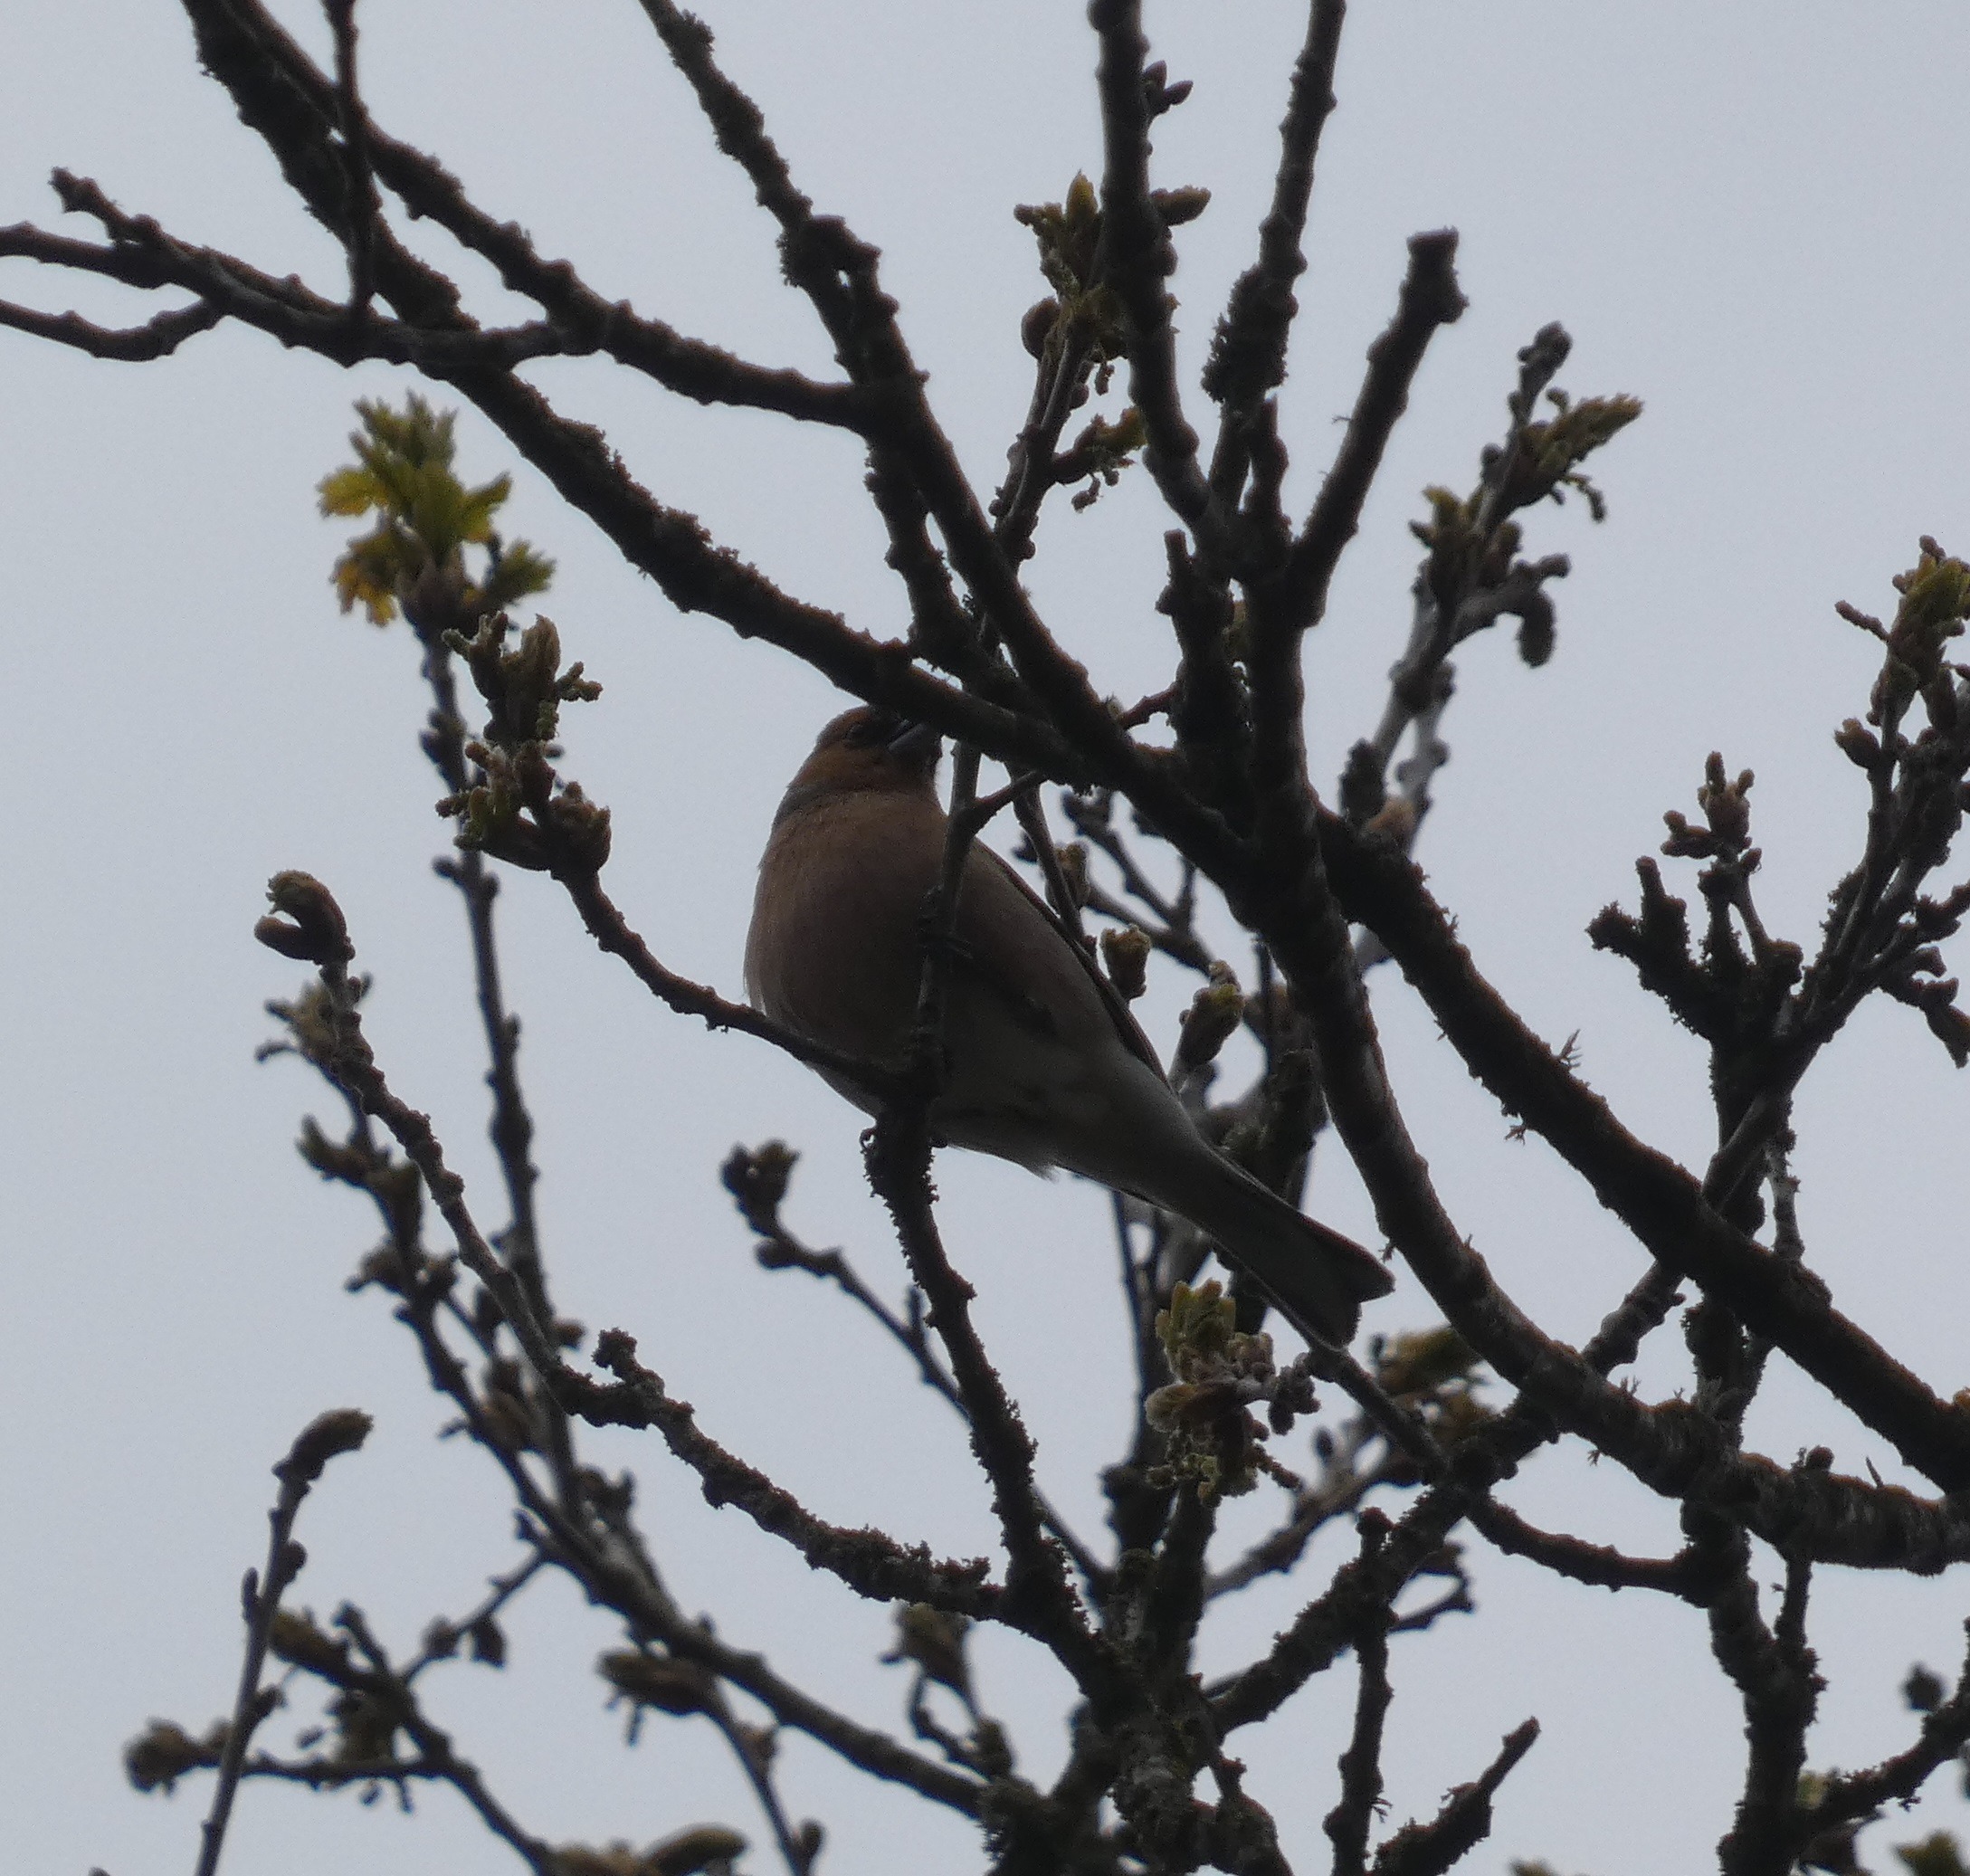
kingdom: Animalia
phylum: Chordata
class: Aves
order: Passeriformes
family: Fringillidae
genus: Fringilla
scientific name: Fringilla coelebs
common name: Bogfinke
